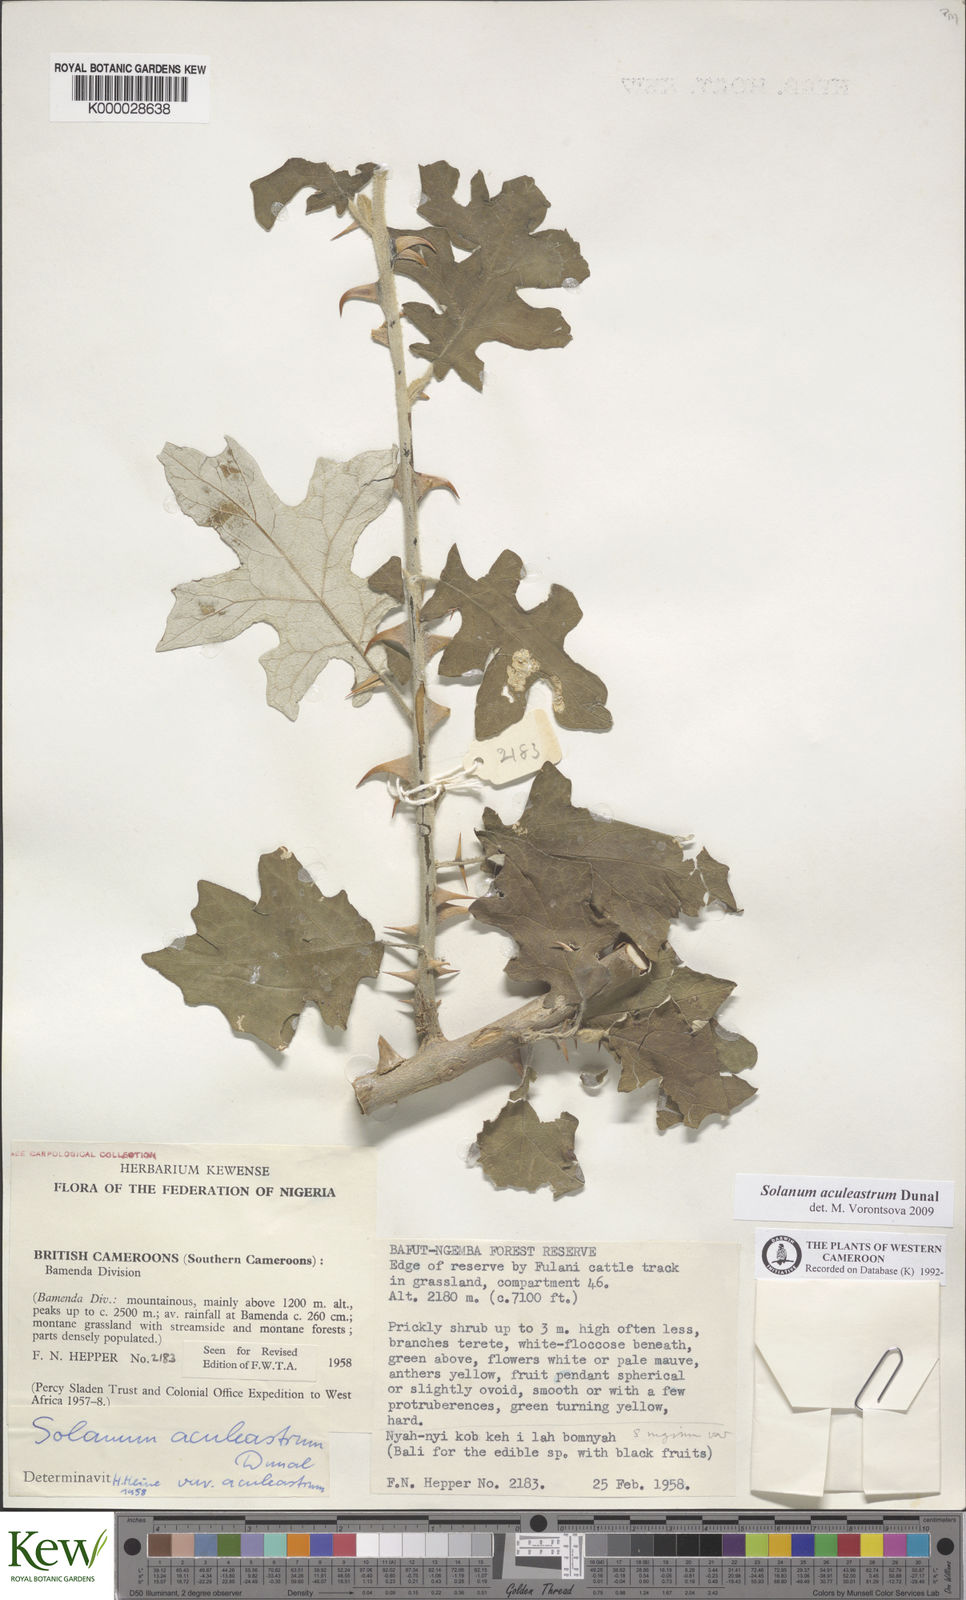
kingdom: Plantae
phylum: Tracheophyta
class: Magnoliopsida
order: Solanales
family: Solanaceae
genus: Solanum
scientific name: Solanum aculeastrum
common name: Goat bitter-apple
